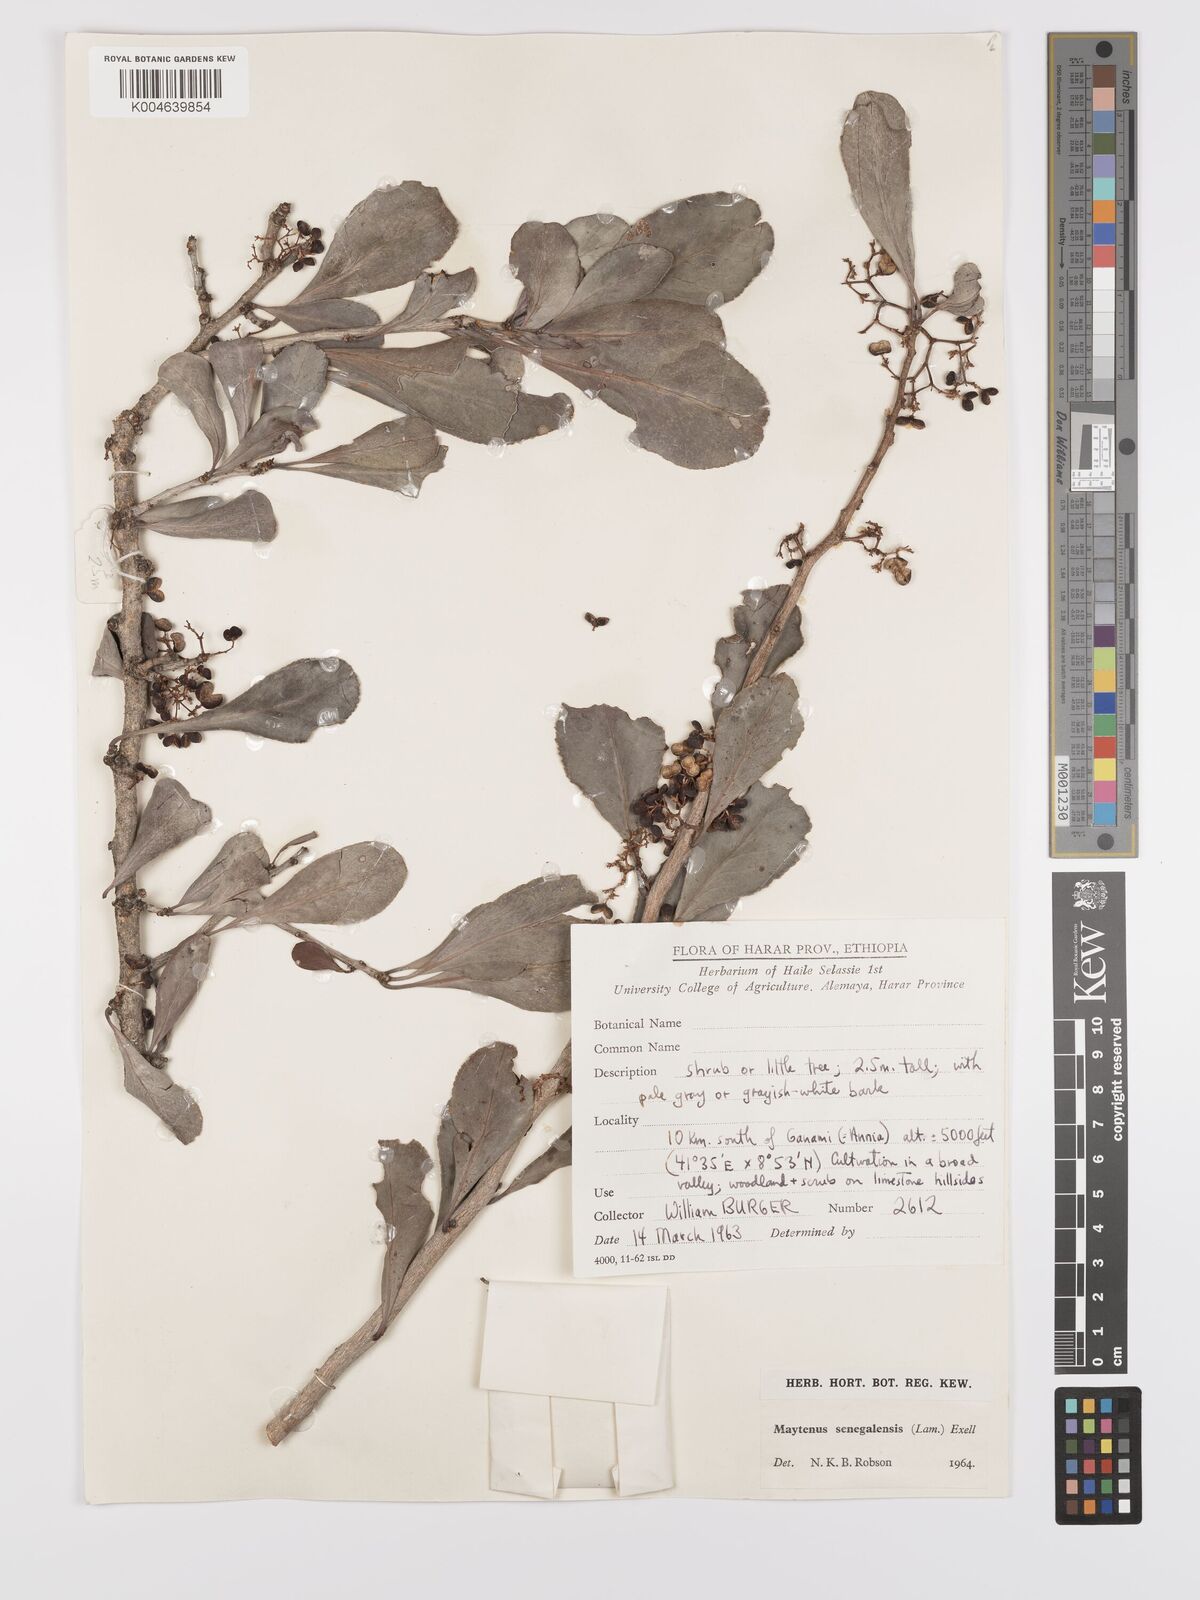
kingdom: Plantae
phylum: Tracheophyta
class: Magnoliopsida
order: Celastrales
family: Celastraceae
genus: Gymnosporia
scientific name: Gymnosporia senegalensis
